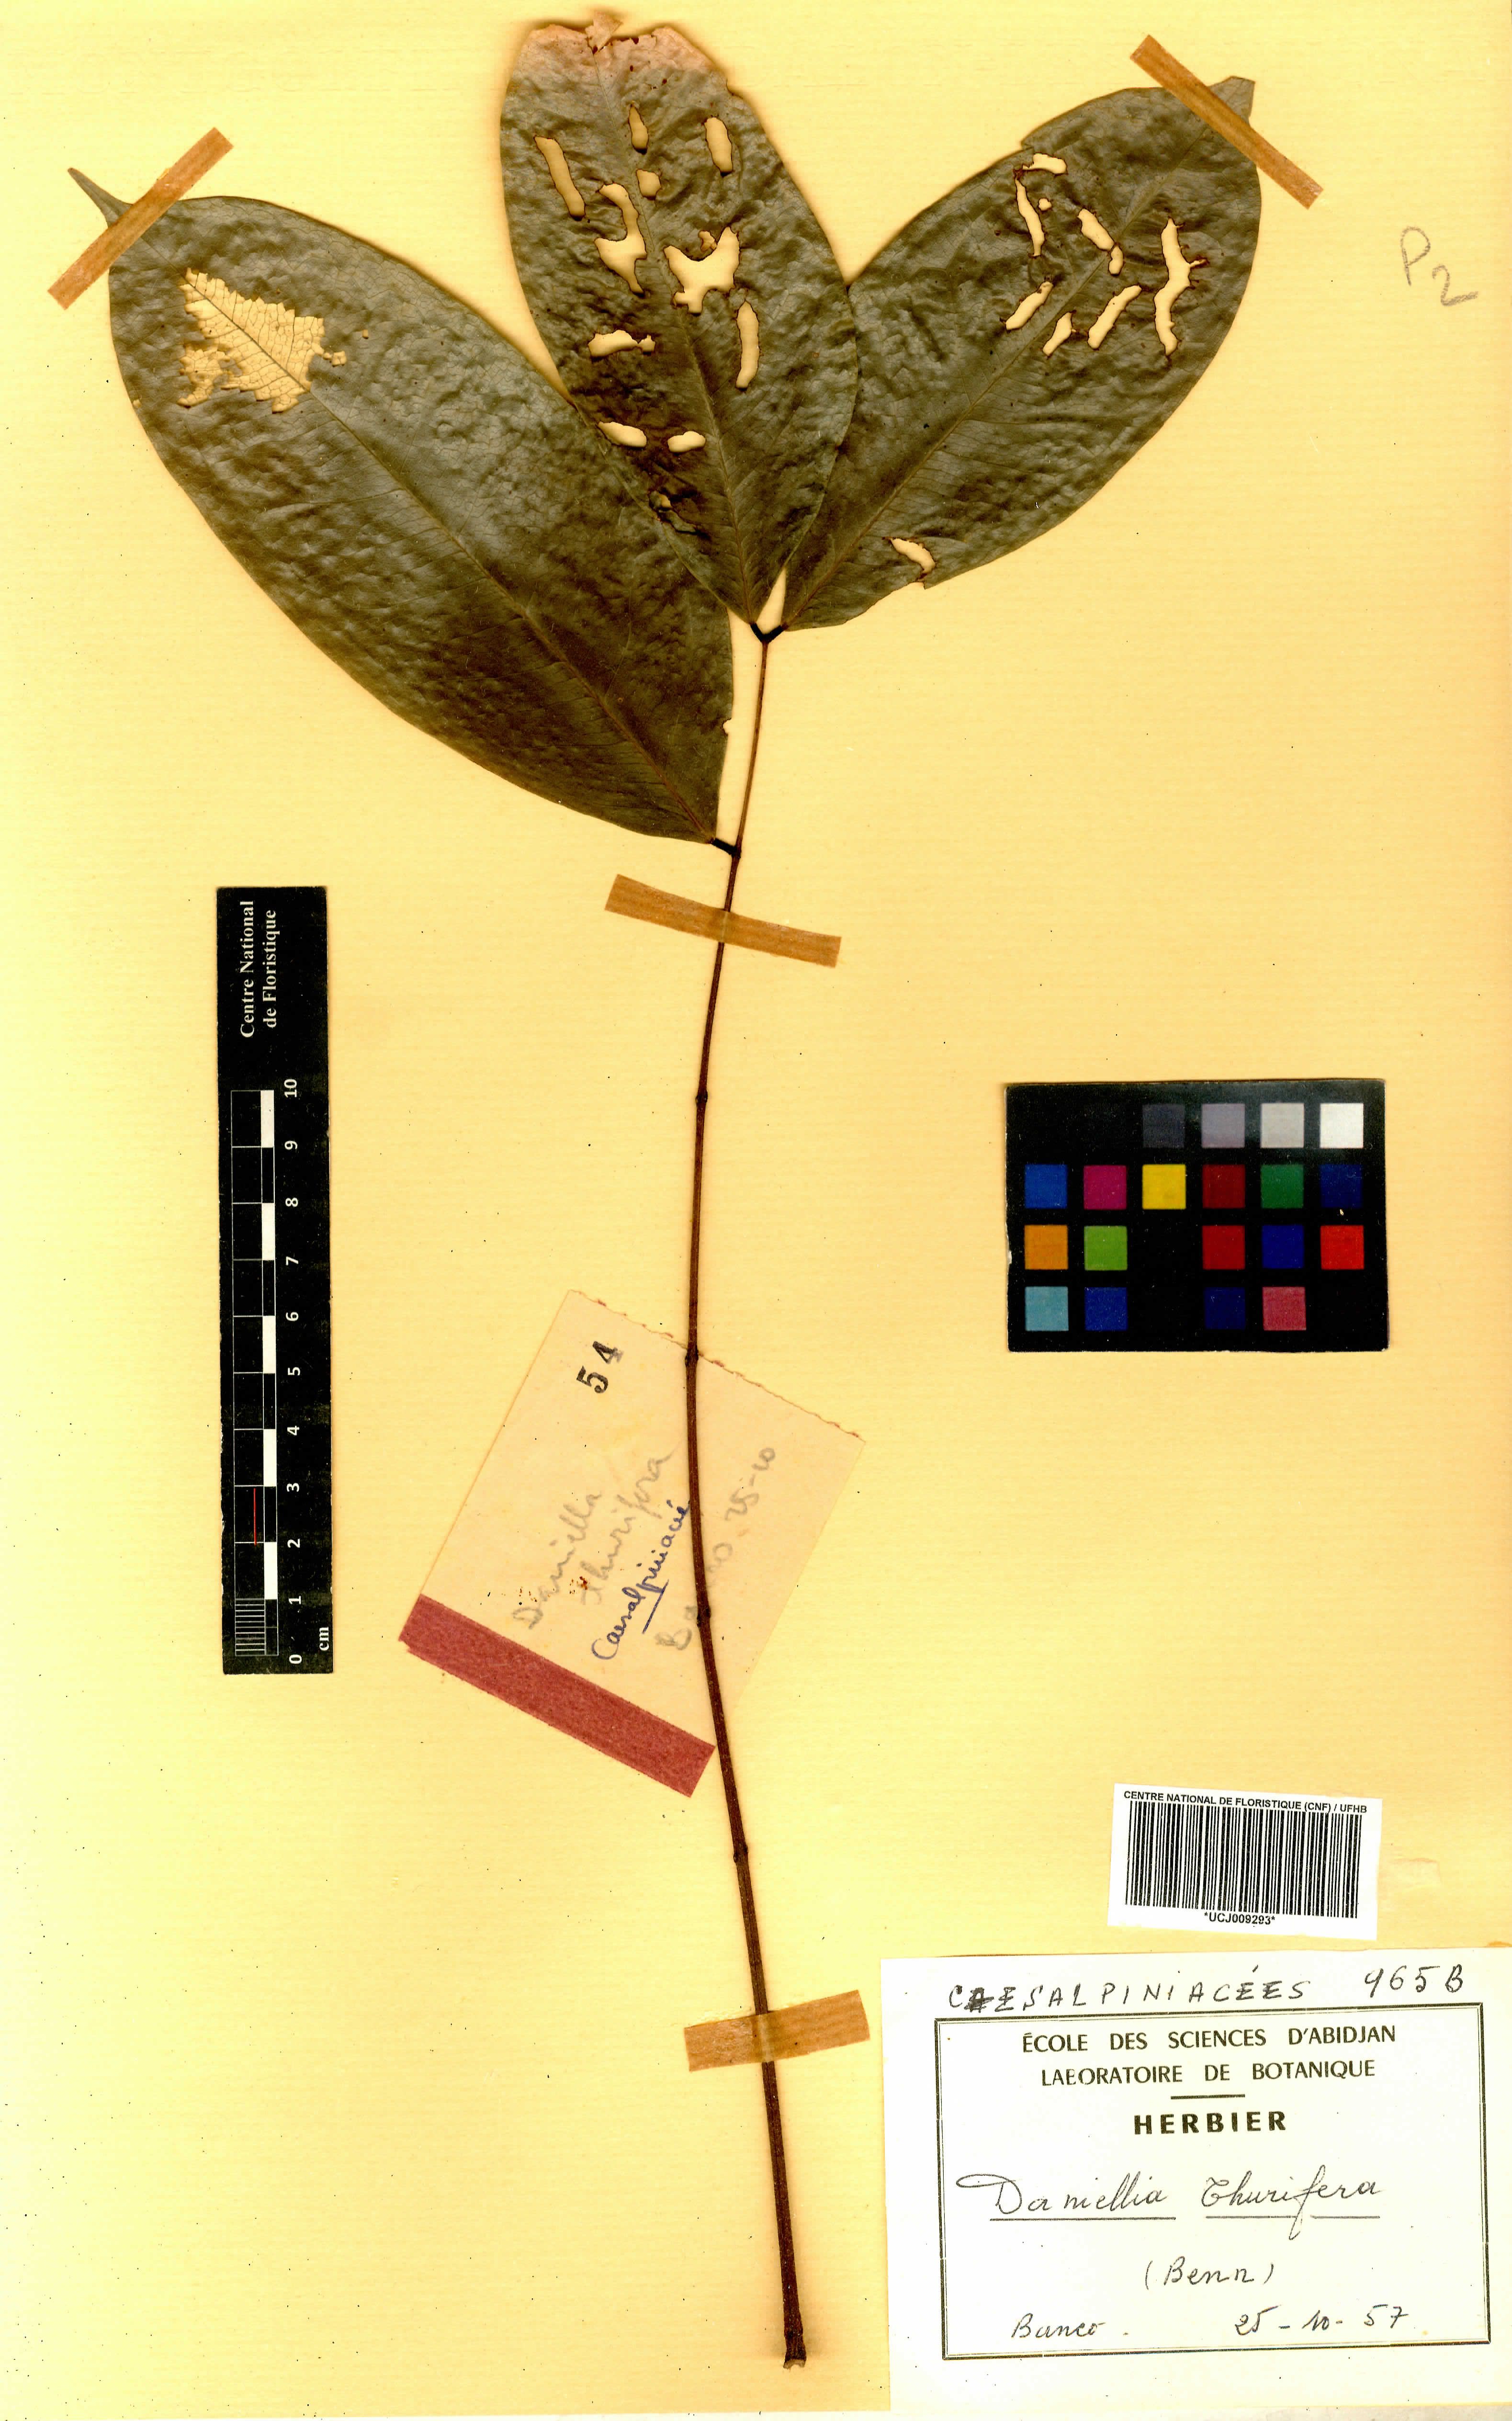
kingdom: Plantae
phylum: Tracheophyta
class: Magnoliopsida
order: Fabales
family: Fabaceae
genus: Daniellia
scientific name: Daniellia thurifera
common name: Sudan copal
